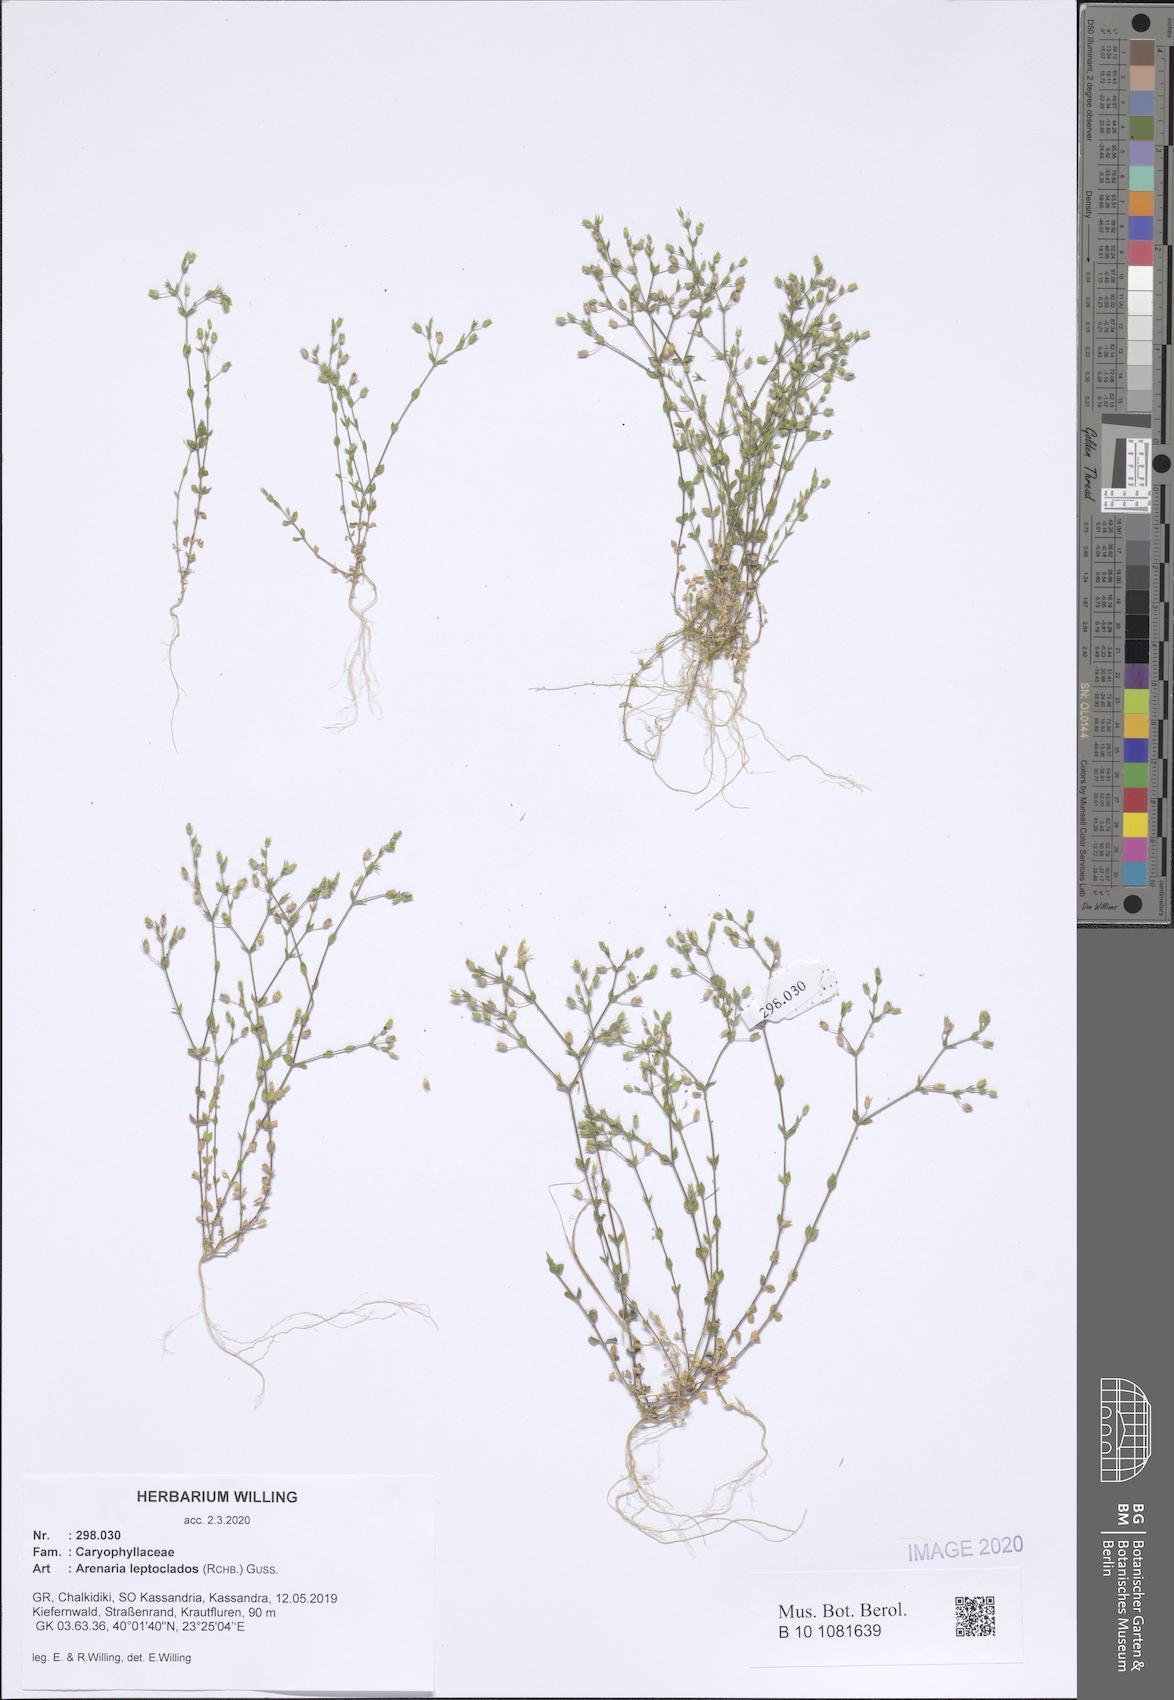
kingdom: Plantae
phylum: Tracheophyta
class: Magnoliopsida
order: Caryophyllales
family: Caryophyllaceae
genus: Arenaria
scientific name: Arenaria leptoclados
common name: Thyme-leaved sandwort
